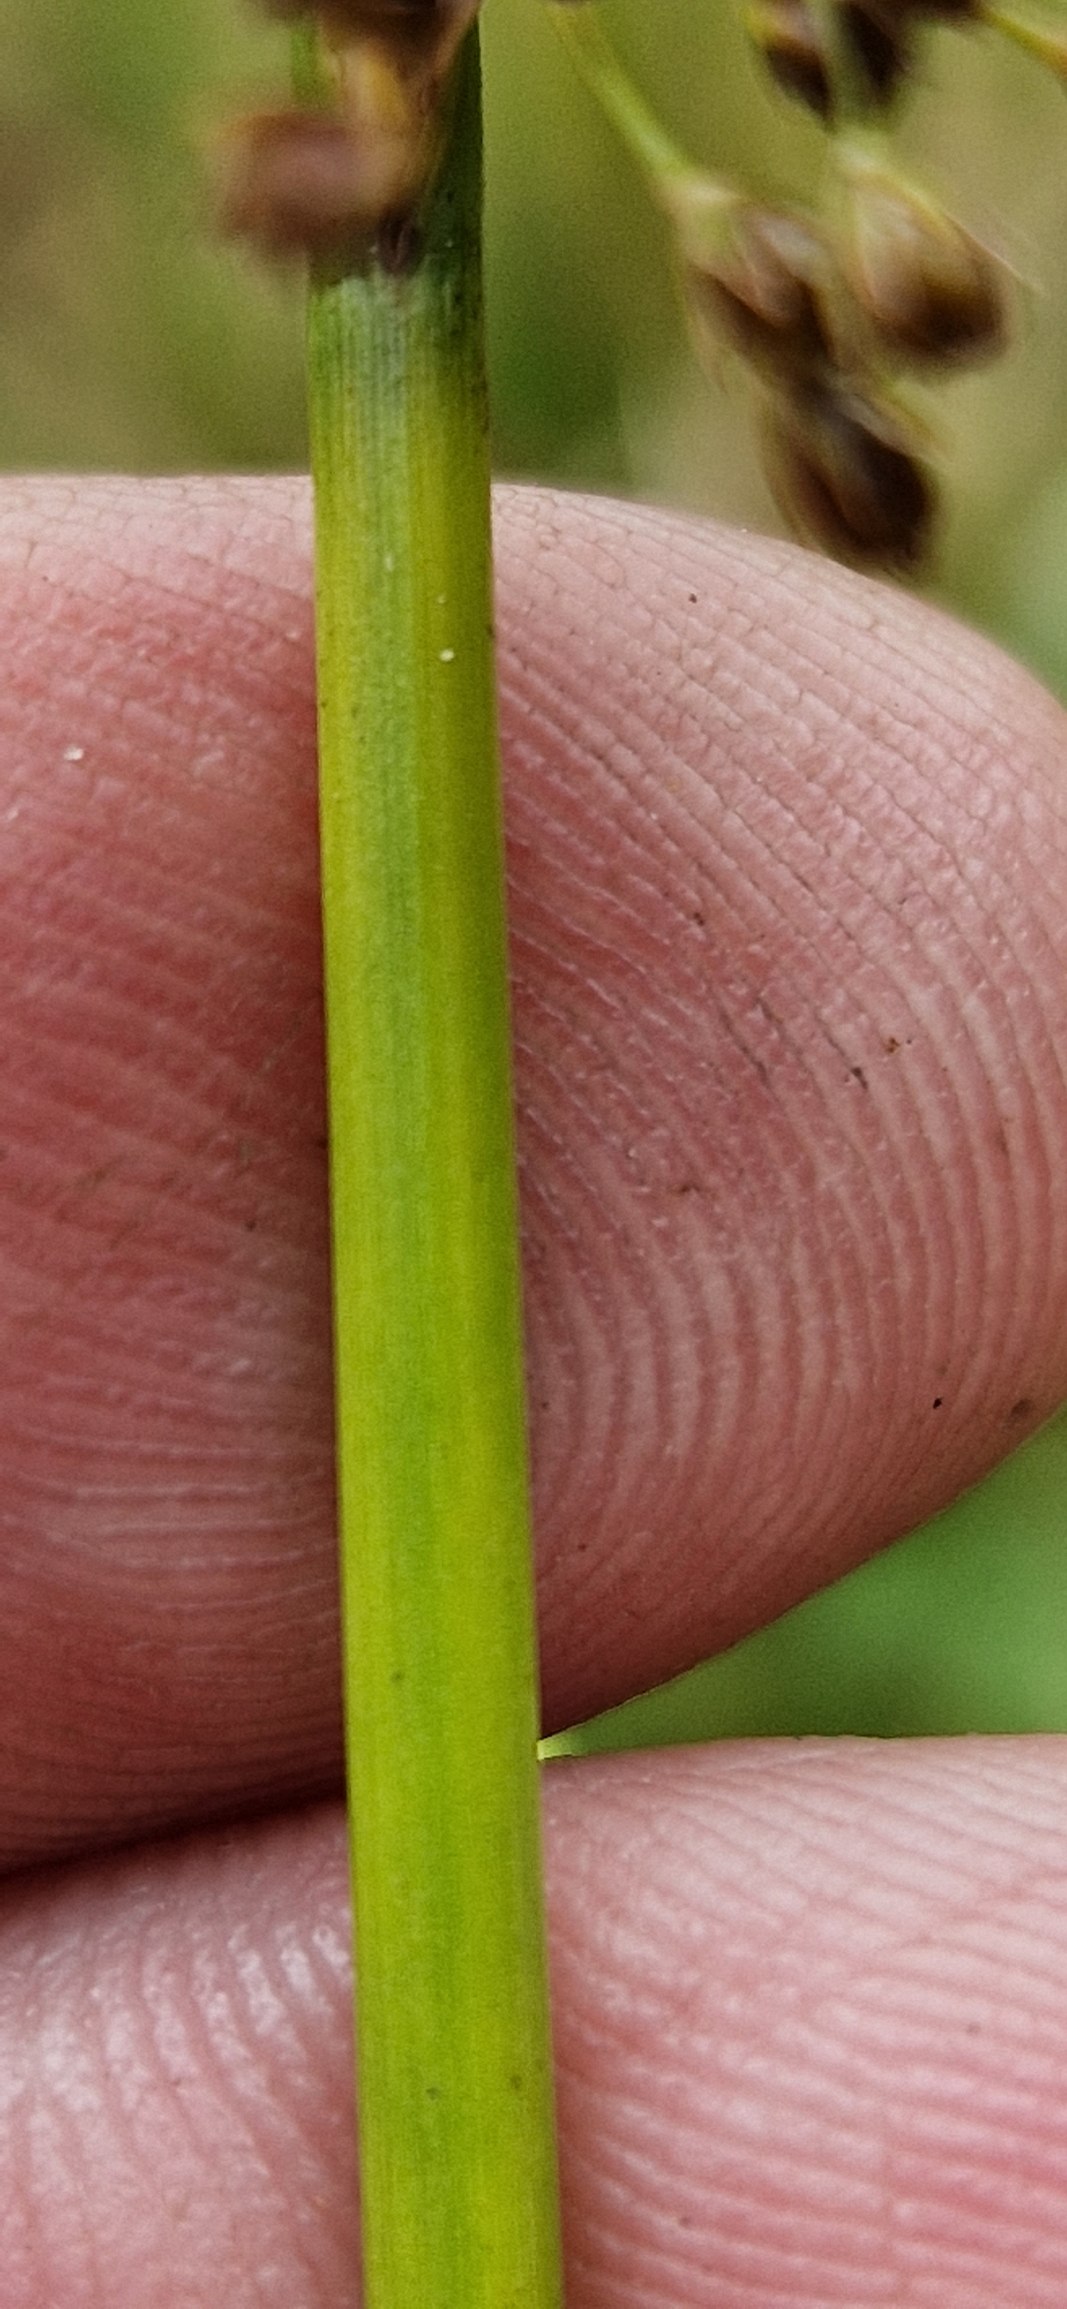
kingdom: Plantae
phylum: Tracheophyta
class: Liliopsida
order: Poales
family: Juncaceae
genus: Juncus
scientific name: Juncus effusus
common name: Lyse-siv
